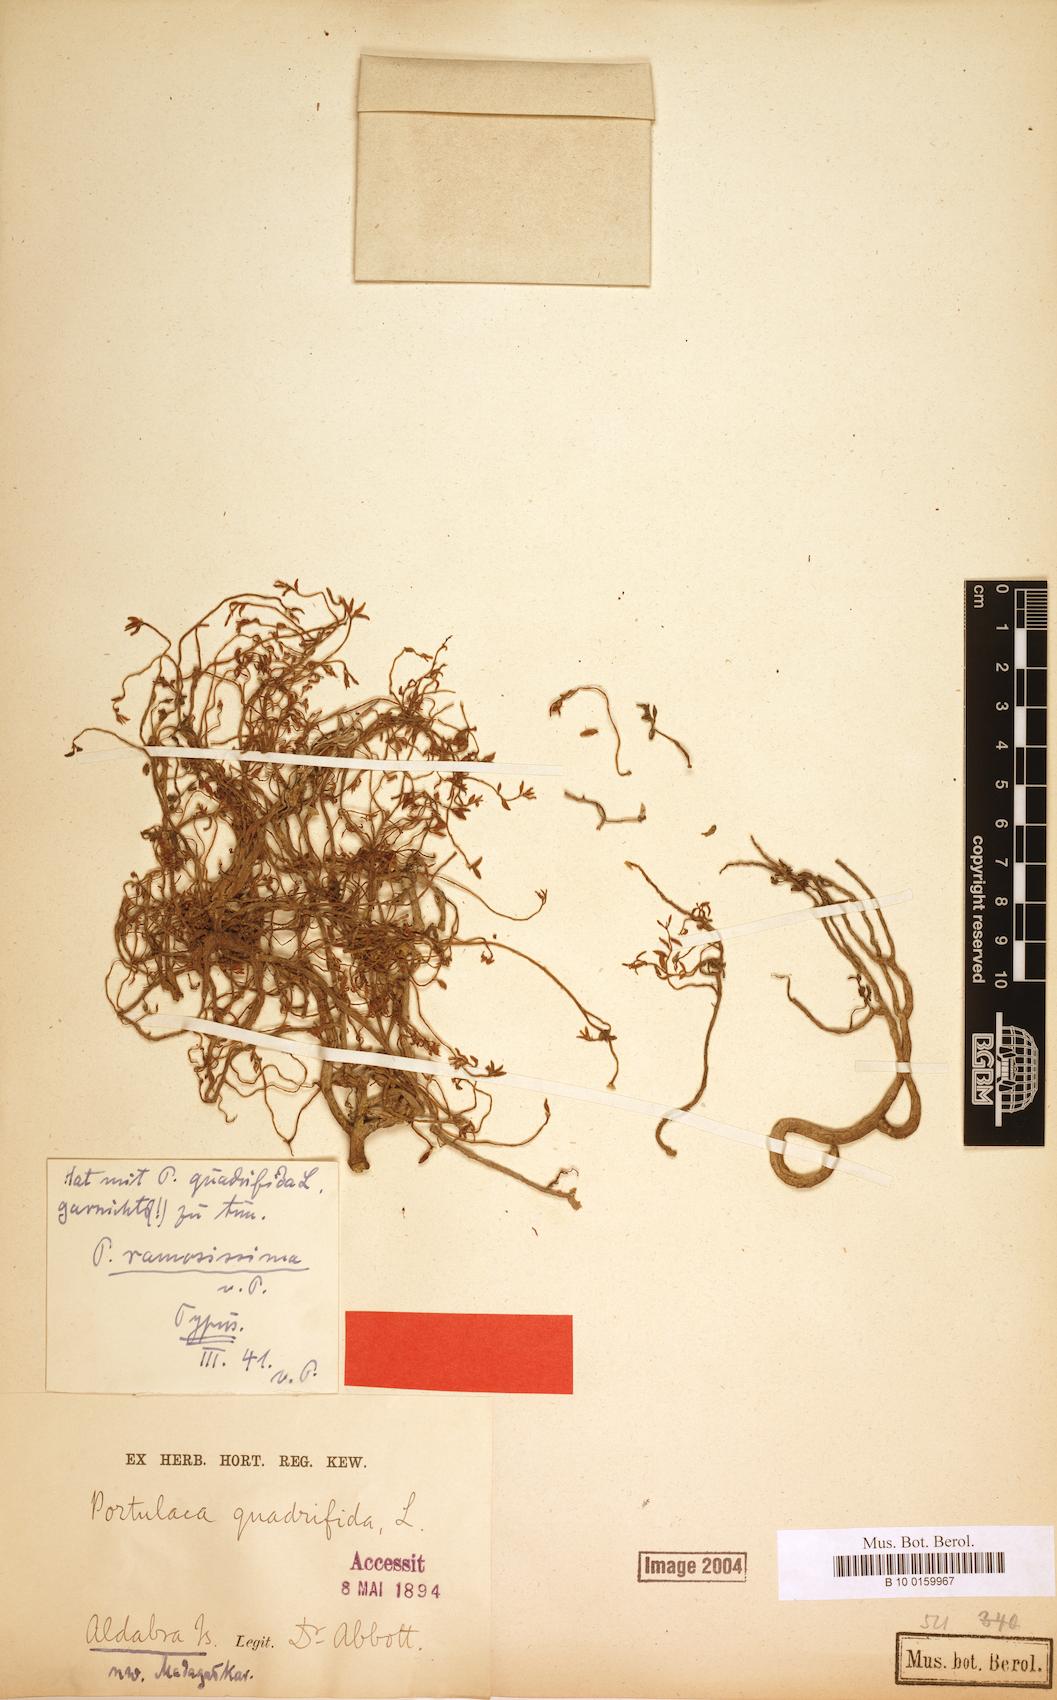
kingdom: Plantae
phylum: Tracheophyta
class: Magnoliopsida
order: Caryophyllales
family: Portulacaceae
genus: Portulaca
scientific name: Portulaca mauritiensis
